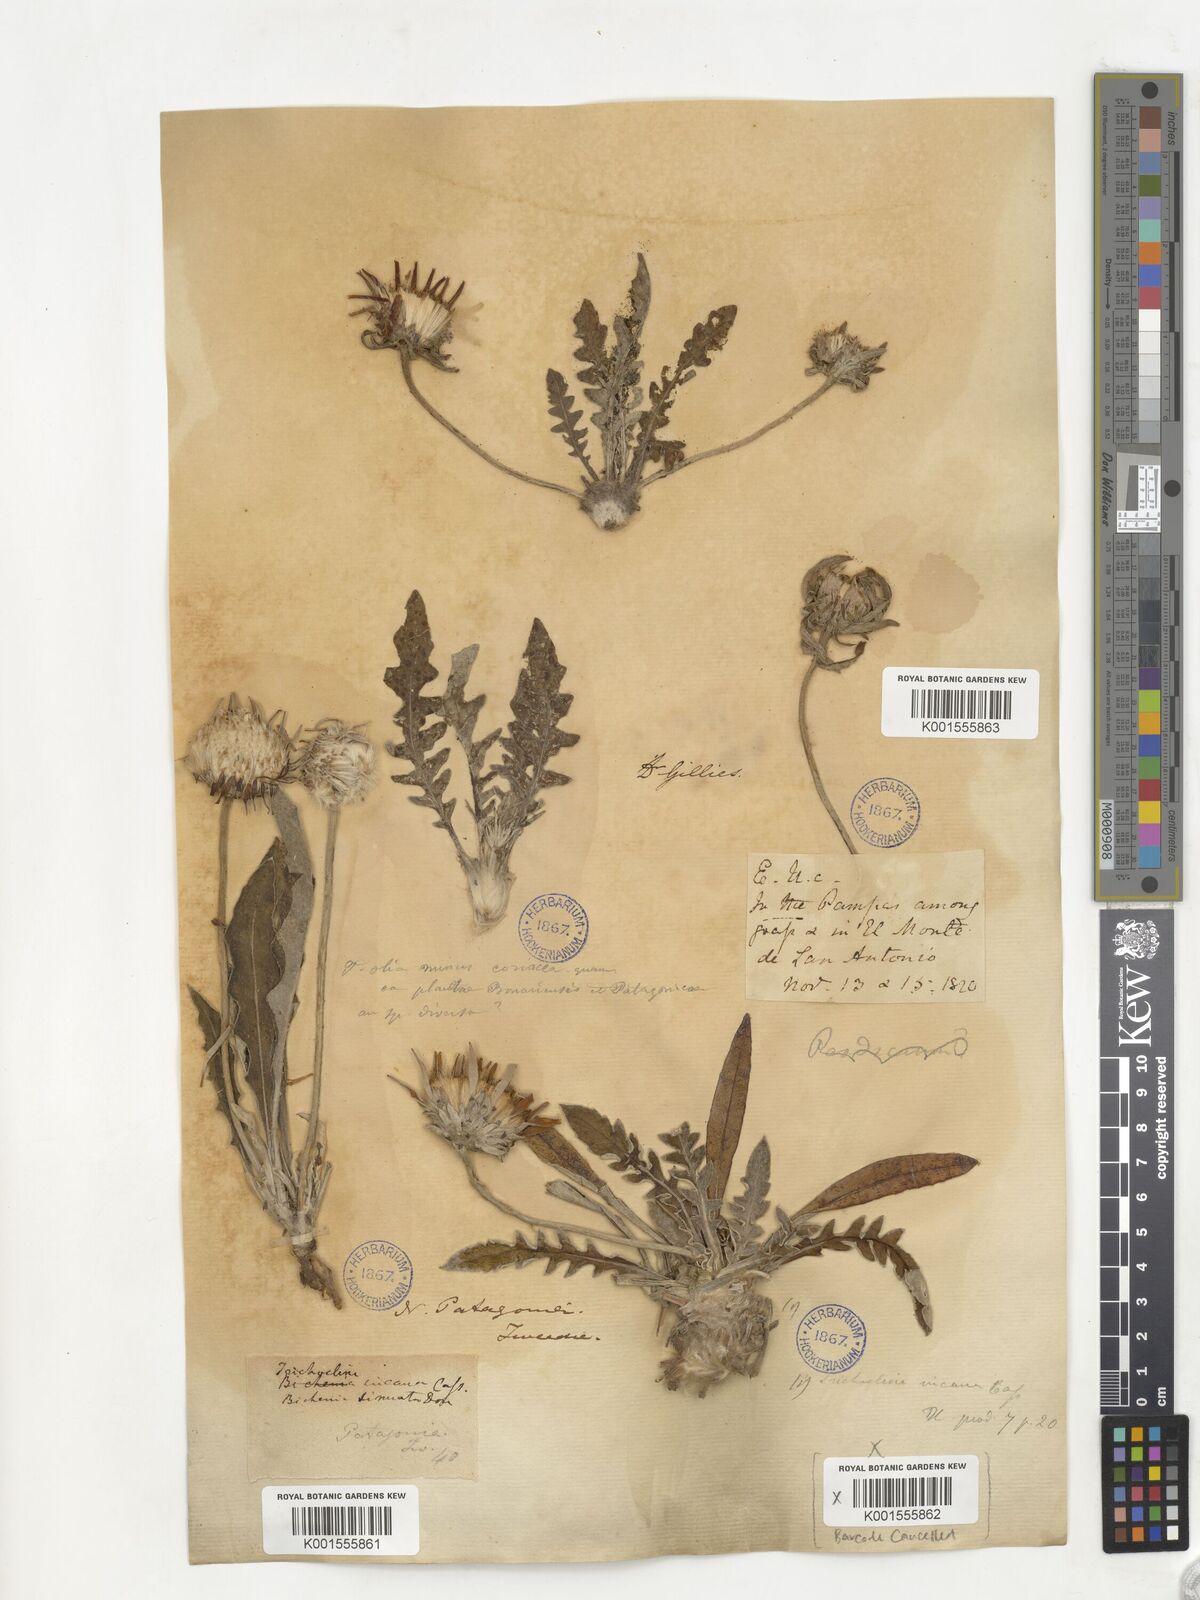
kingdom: Plantae
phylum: Tracheophyta
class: Magnoliopsida
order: Asterales
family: Asteraceae
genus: Trichocline
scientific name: Trichocline incana
